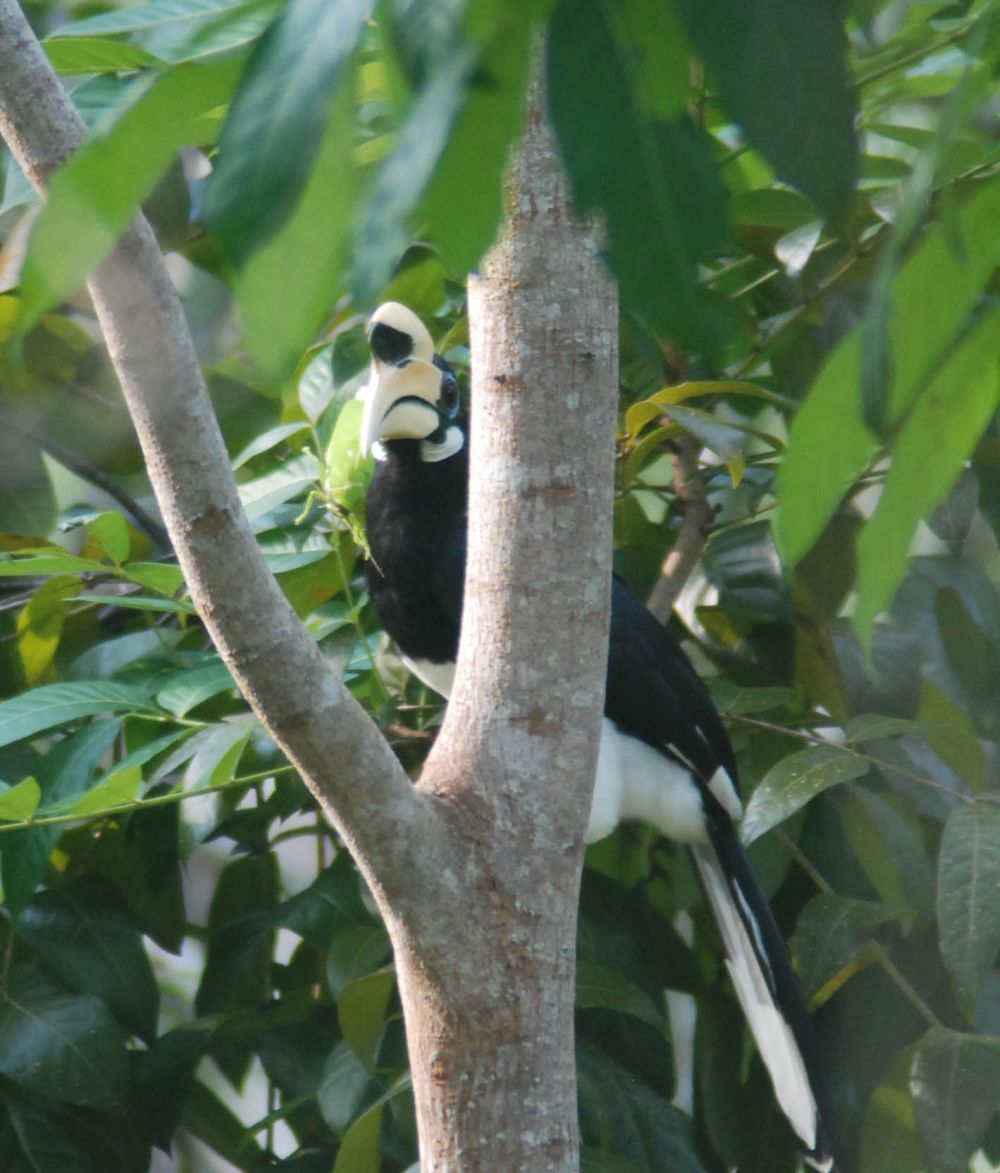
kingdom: Animalia
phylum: Chordata
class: Aves
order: Bucerotiformes
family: Bucerotidae
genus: Anthracoceros
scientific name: Anthracoceros albirostris
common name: Oriental pied-hornbill
